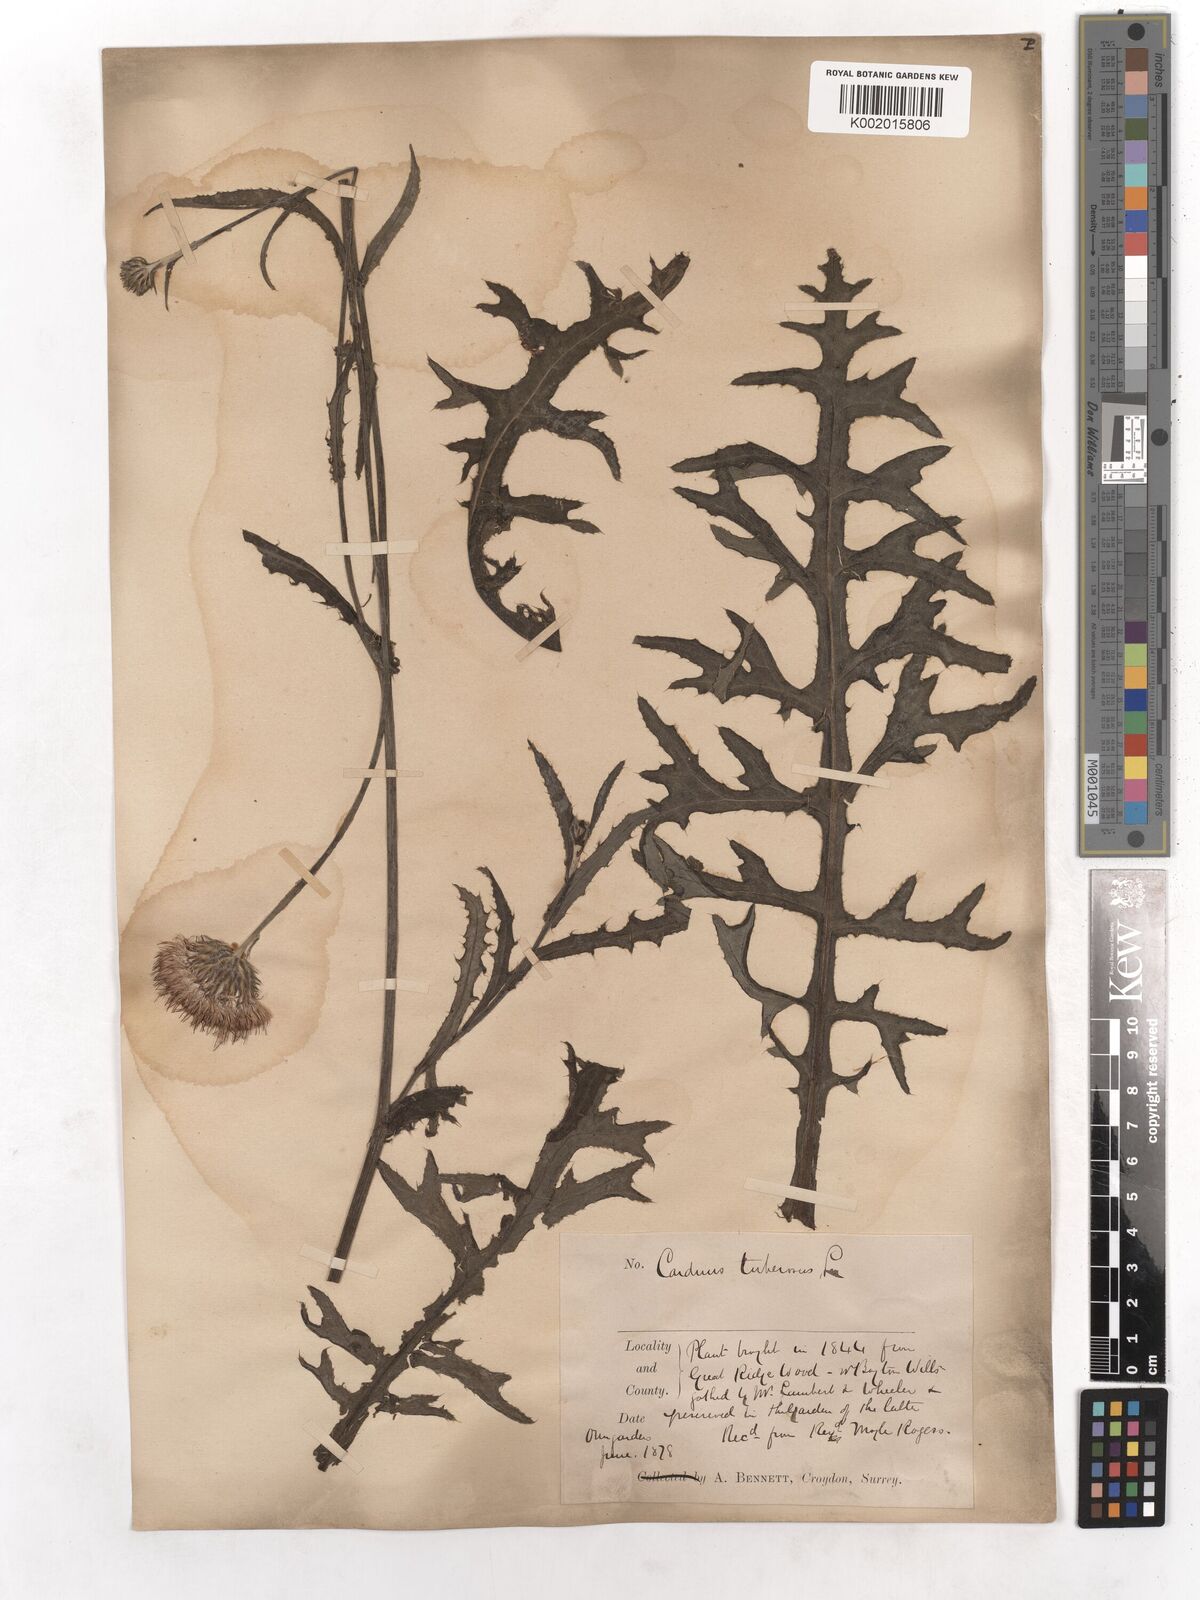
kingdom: Plantae
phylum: Tracheophyta
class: Magnoliopsida
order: Asterales
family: Asteraceae
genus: Cirsium
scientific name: Cirsium tuberosum
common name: Tuberous thistle
